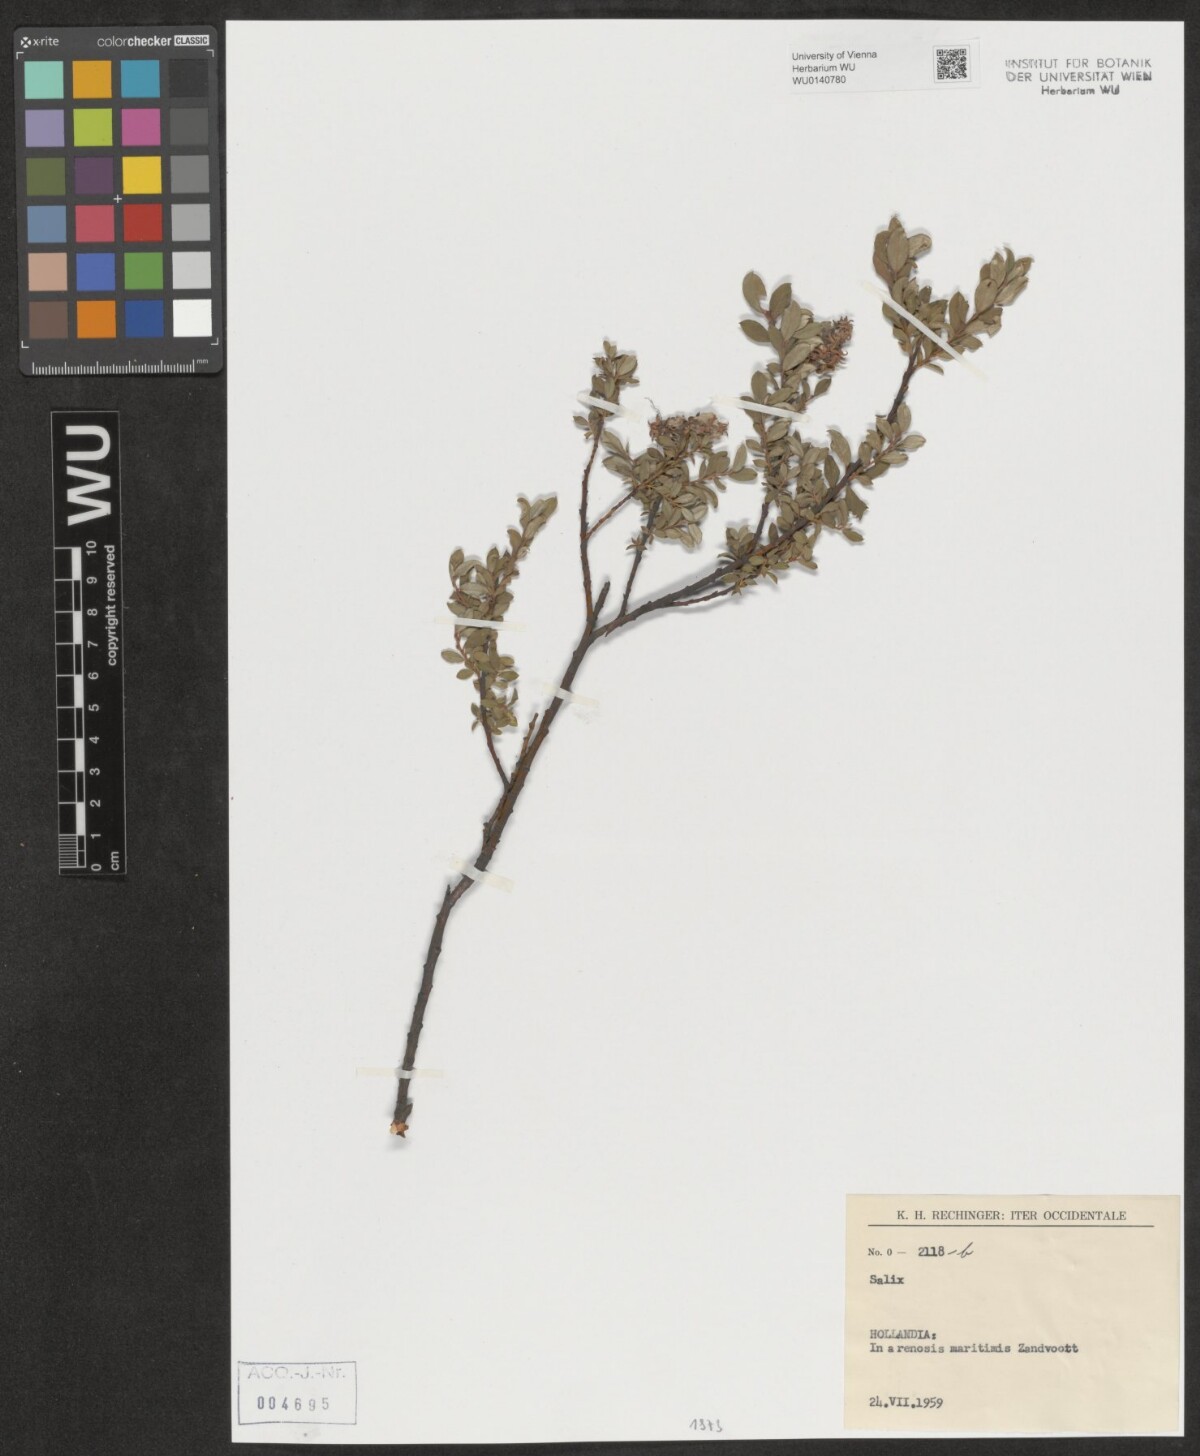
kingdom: Plantae
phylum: Tracheophyta
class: Magnoliopsida
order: Malpighiales
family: Salicaceae
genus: Salix
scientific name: Salix
